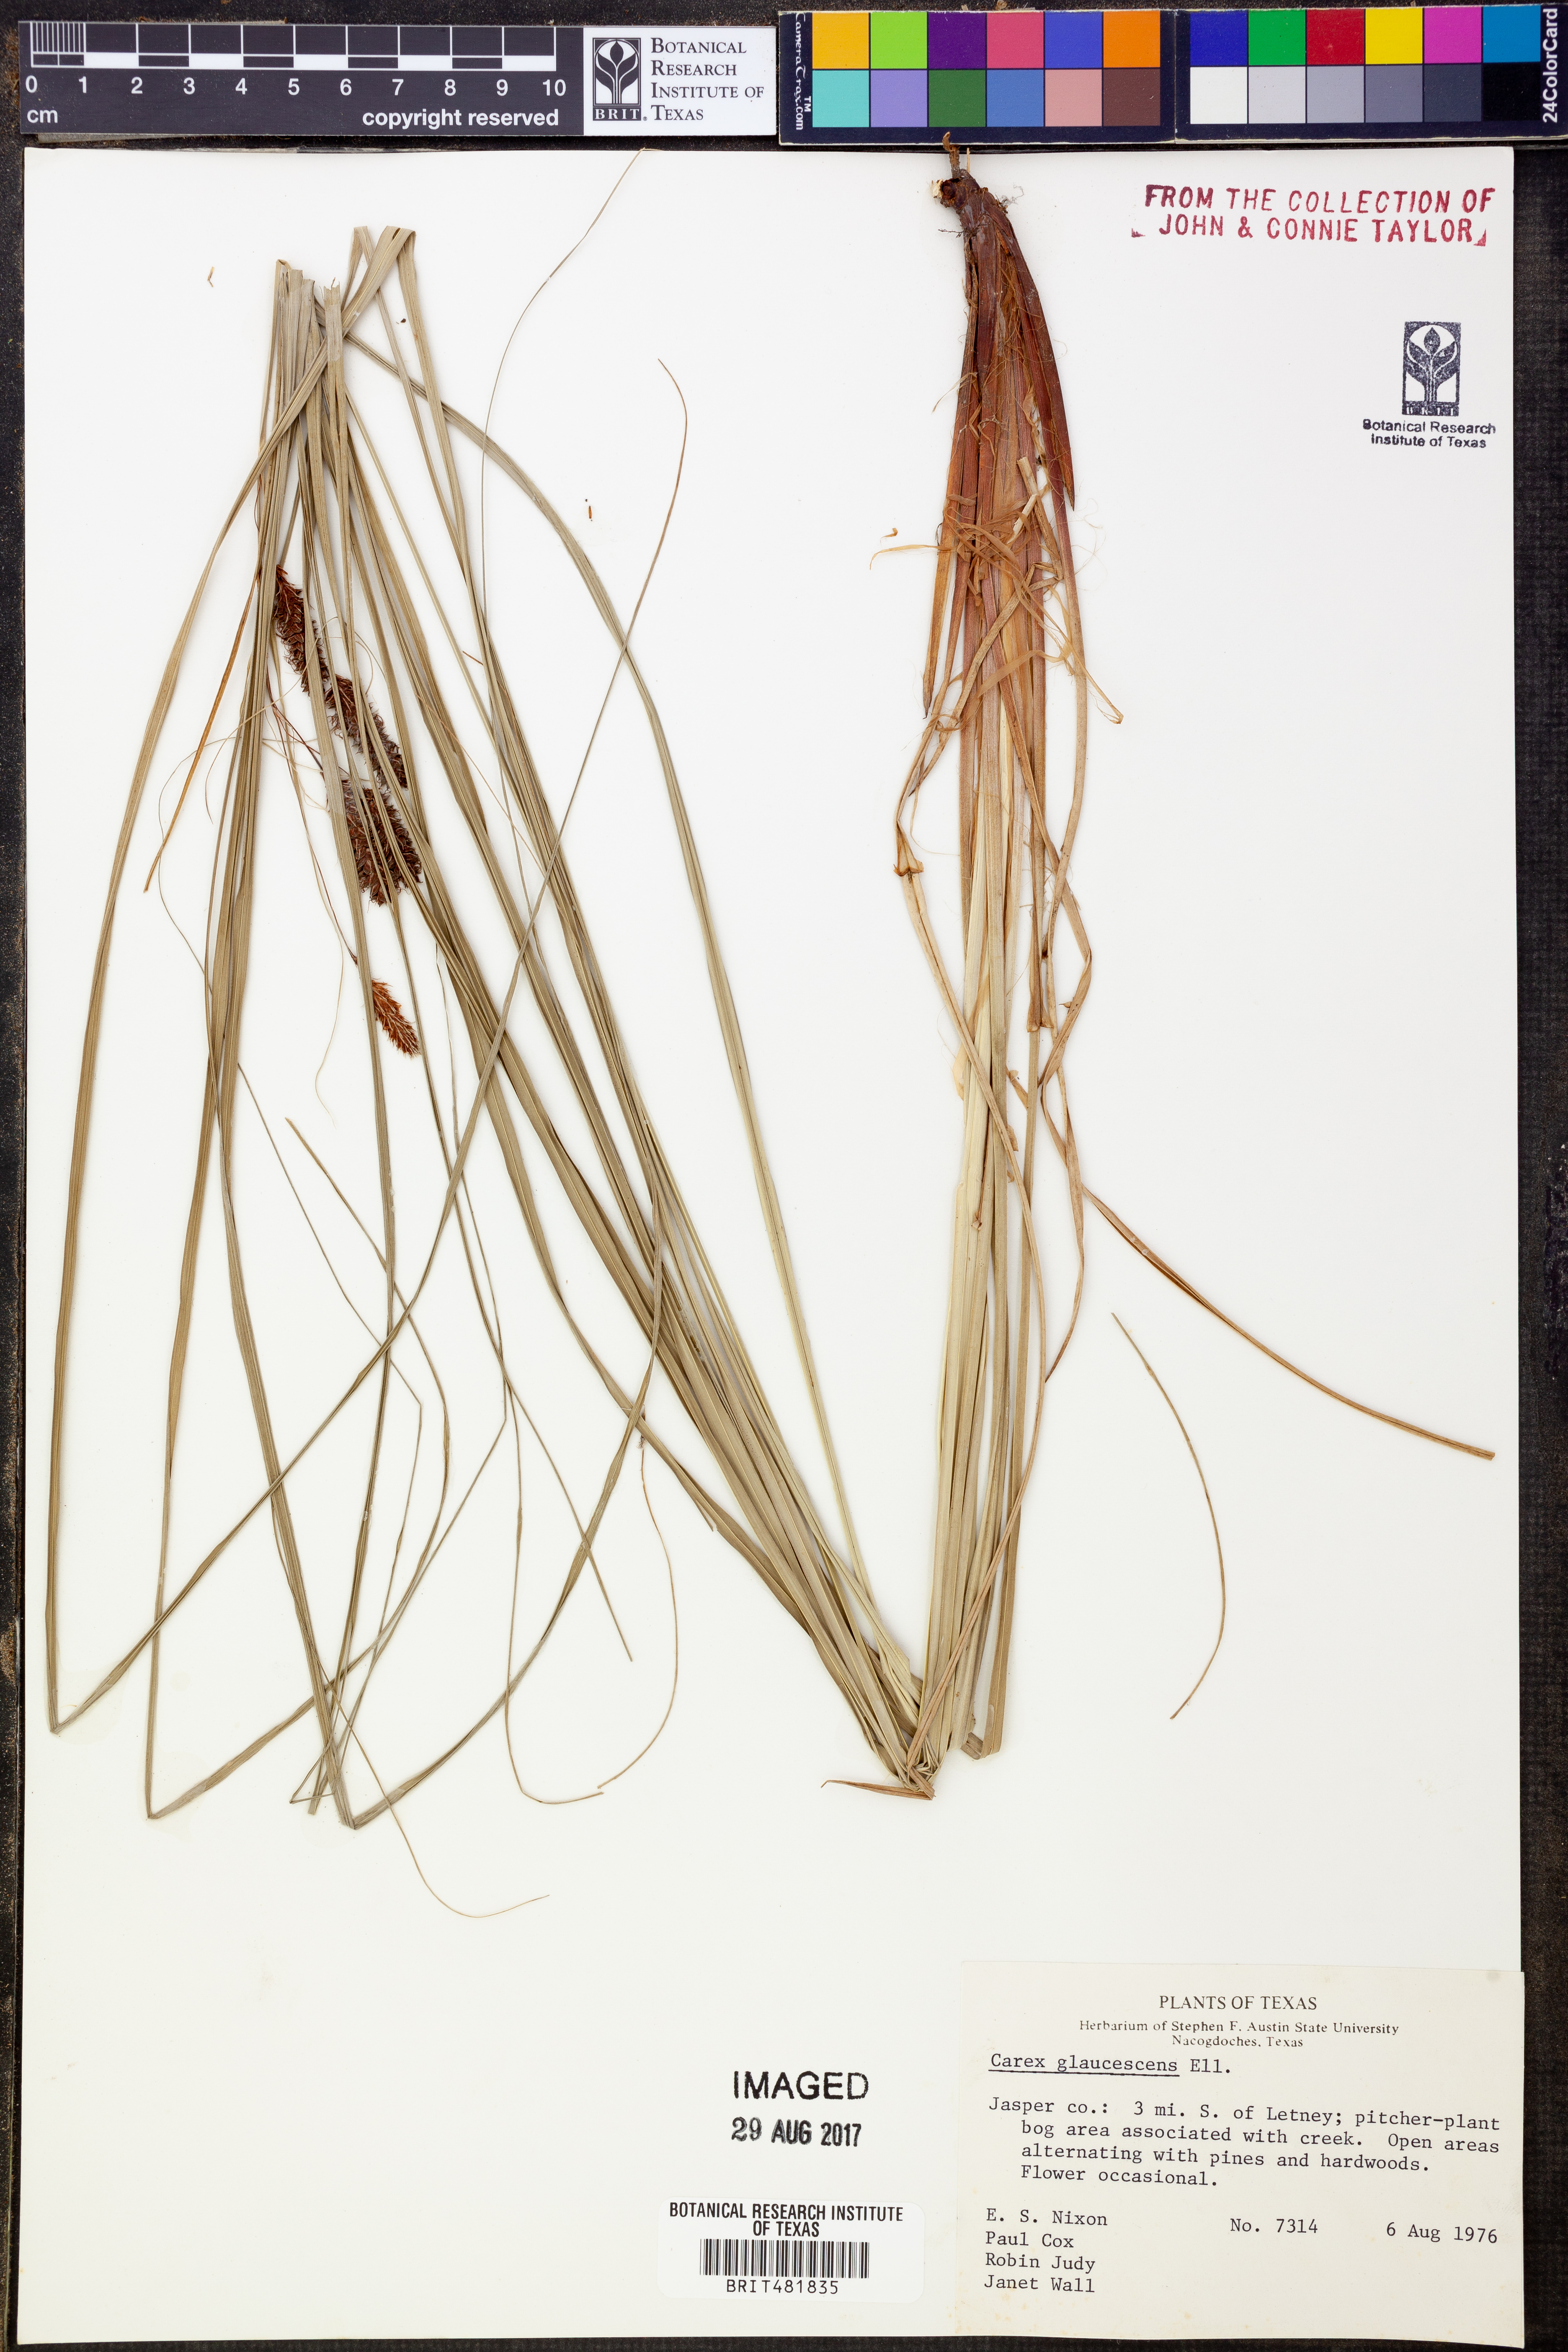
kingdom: Plantae
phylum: Tracheophyta
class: Liliopsida
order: Poales
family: Cyperaceae
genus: Carex
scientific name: Carex glaucescens
